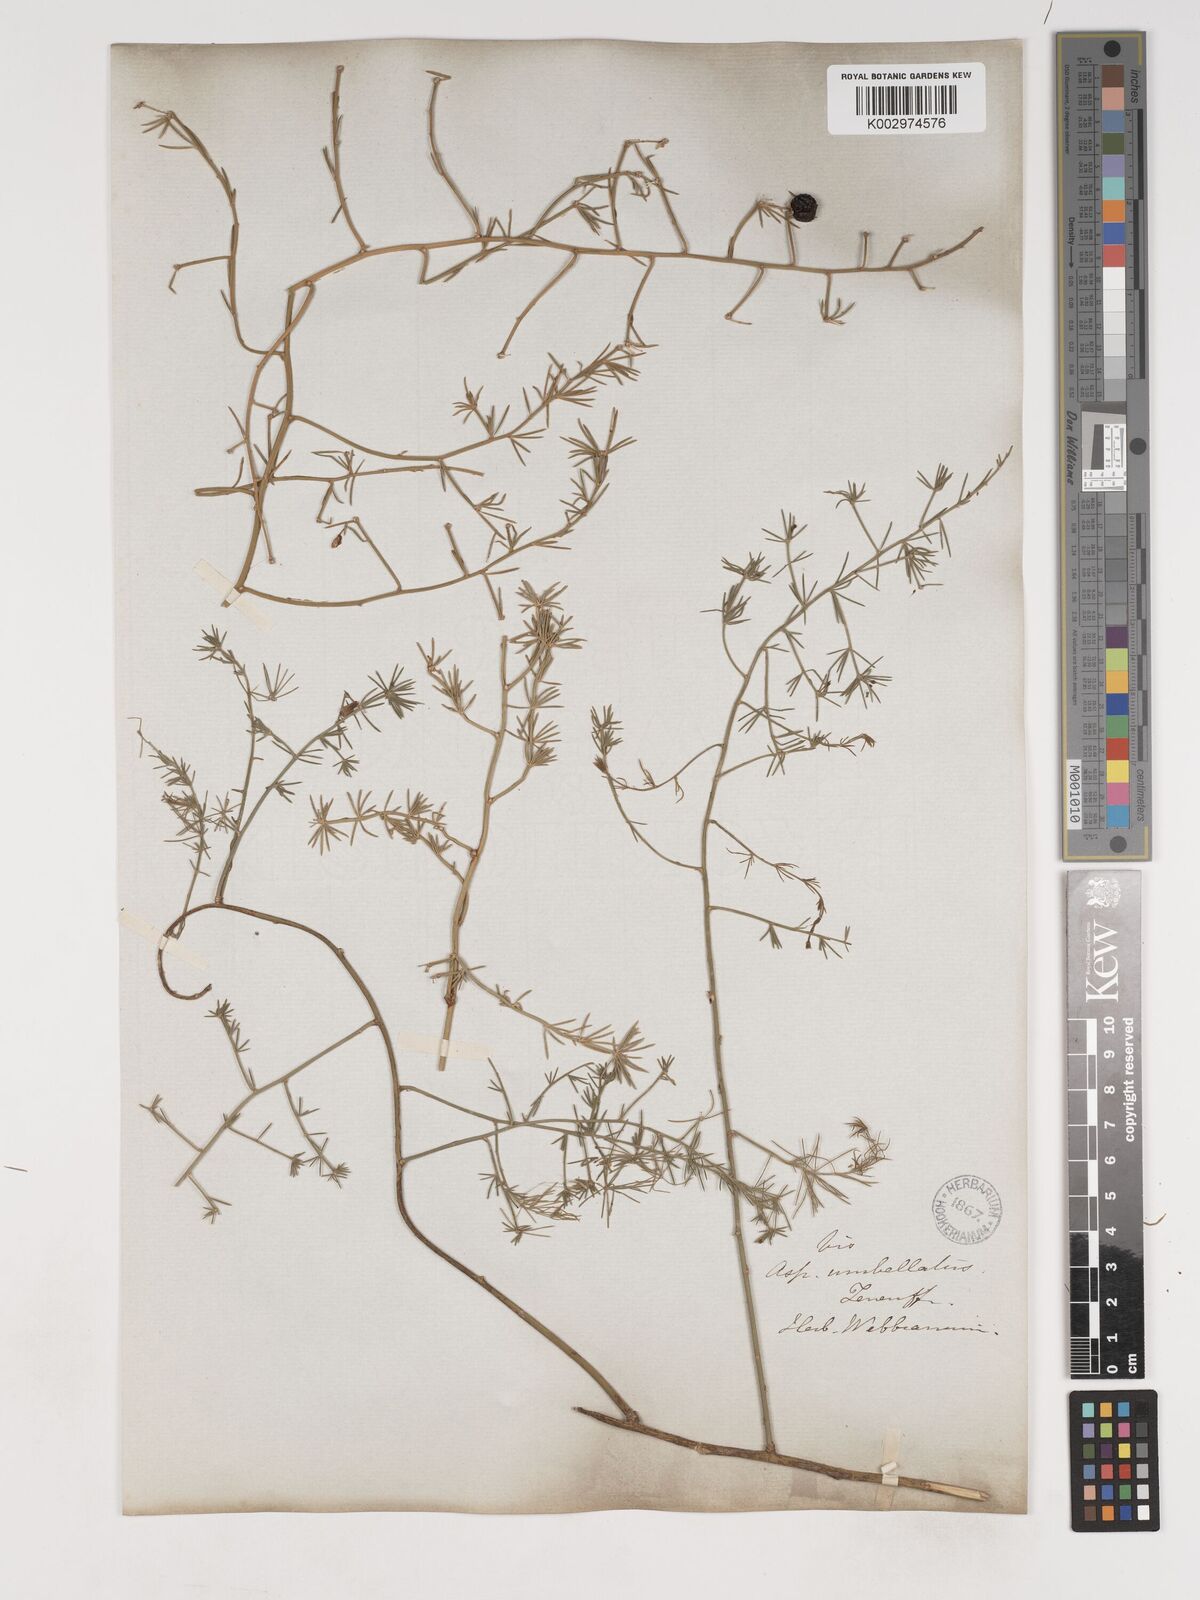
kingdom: Plantae
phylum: Tracheophyta
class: Liliopsida
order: Asparagales
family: Asparagaceae
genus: Asparagus
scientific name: Asparagus umbellatus
